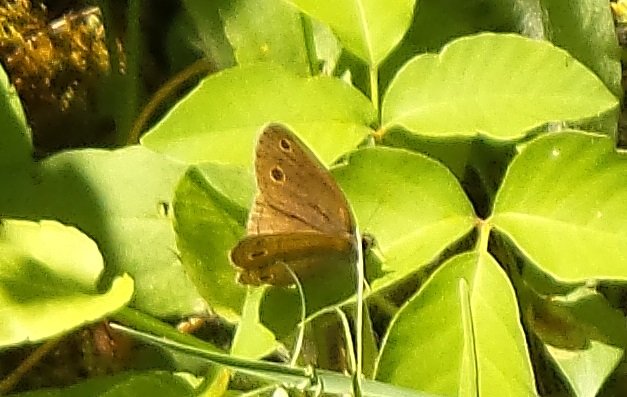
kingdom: Animalia
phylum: Arthropoda
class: Insecta
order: Lepidoptera
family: Nymphalidae
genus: Cercyonis
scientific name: Cercyonis pegala
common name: Common Wood-Nymph
